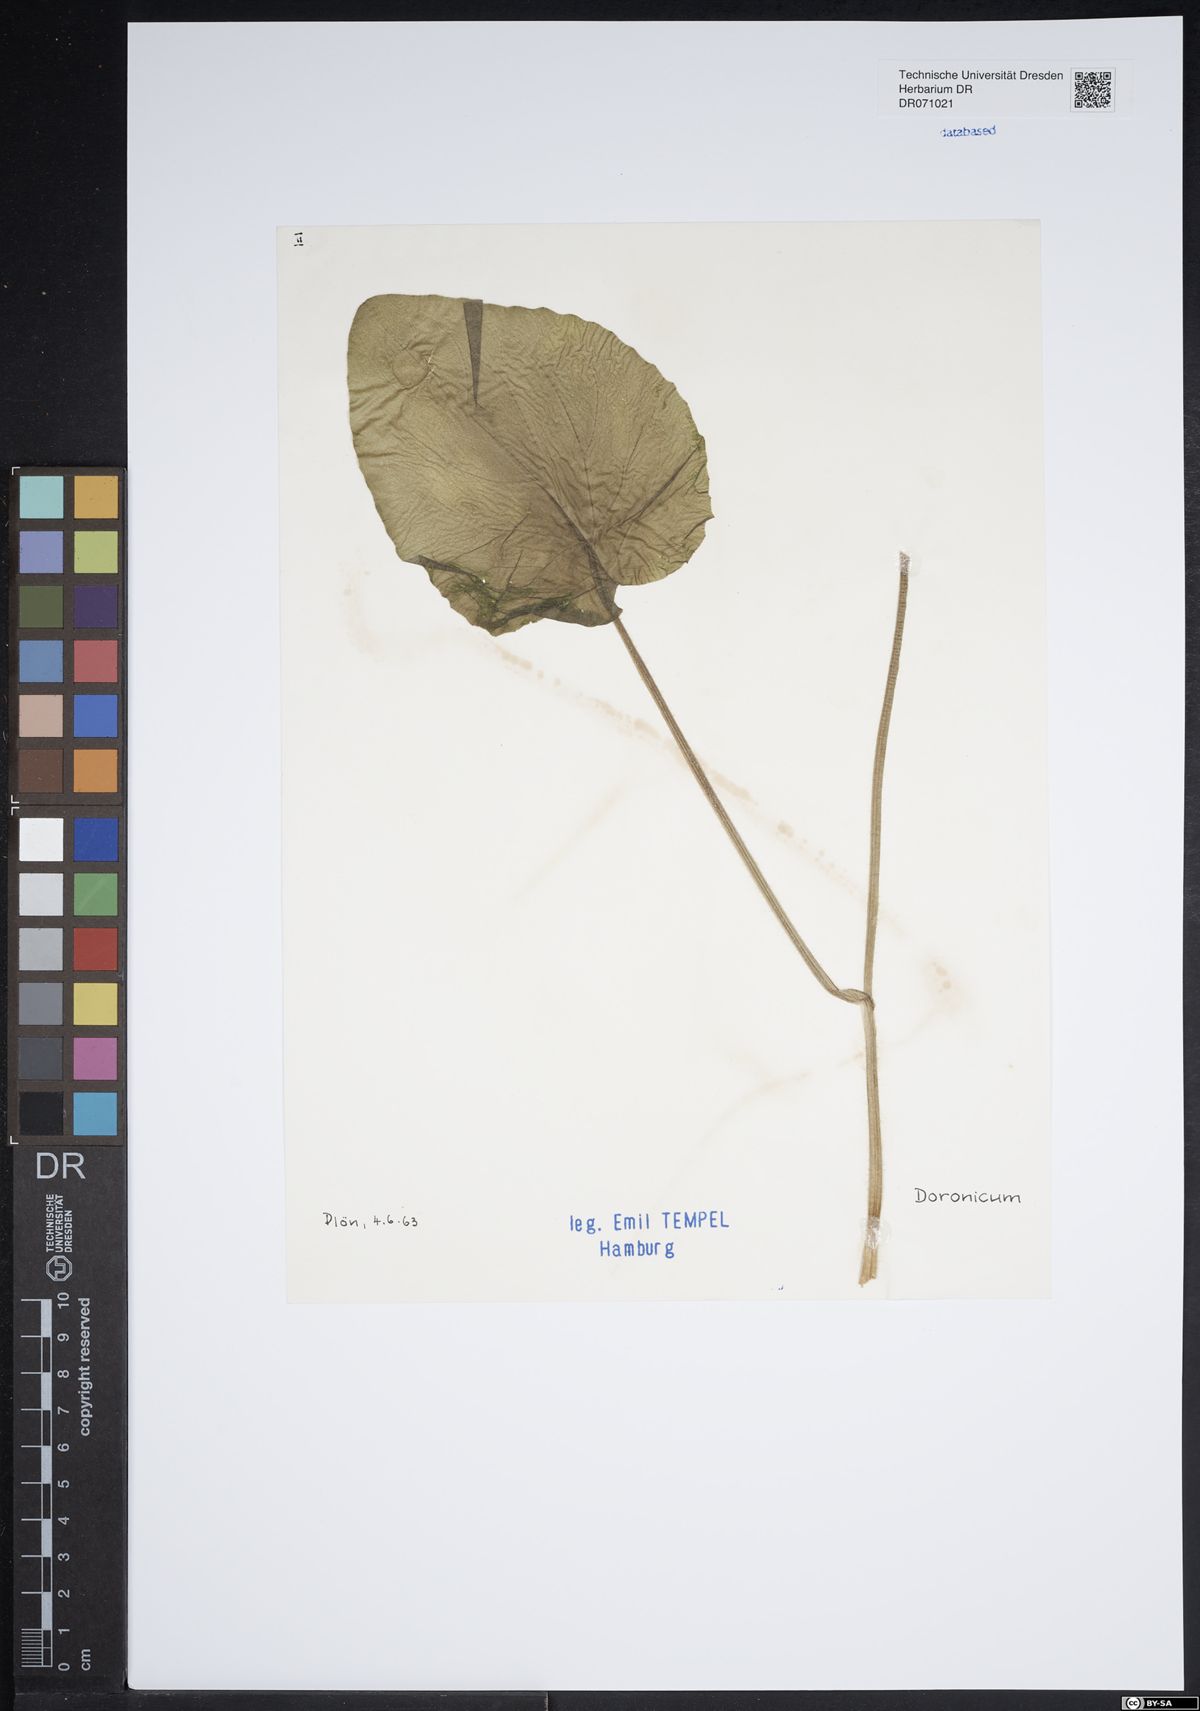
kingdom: Plantae
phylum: Tracheophyta
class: Magnoliopsida
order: Asterales
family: Asteraceae
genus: Doronicum
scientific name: Doronicum
